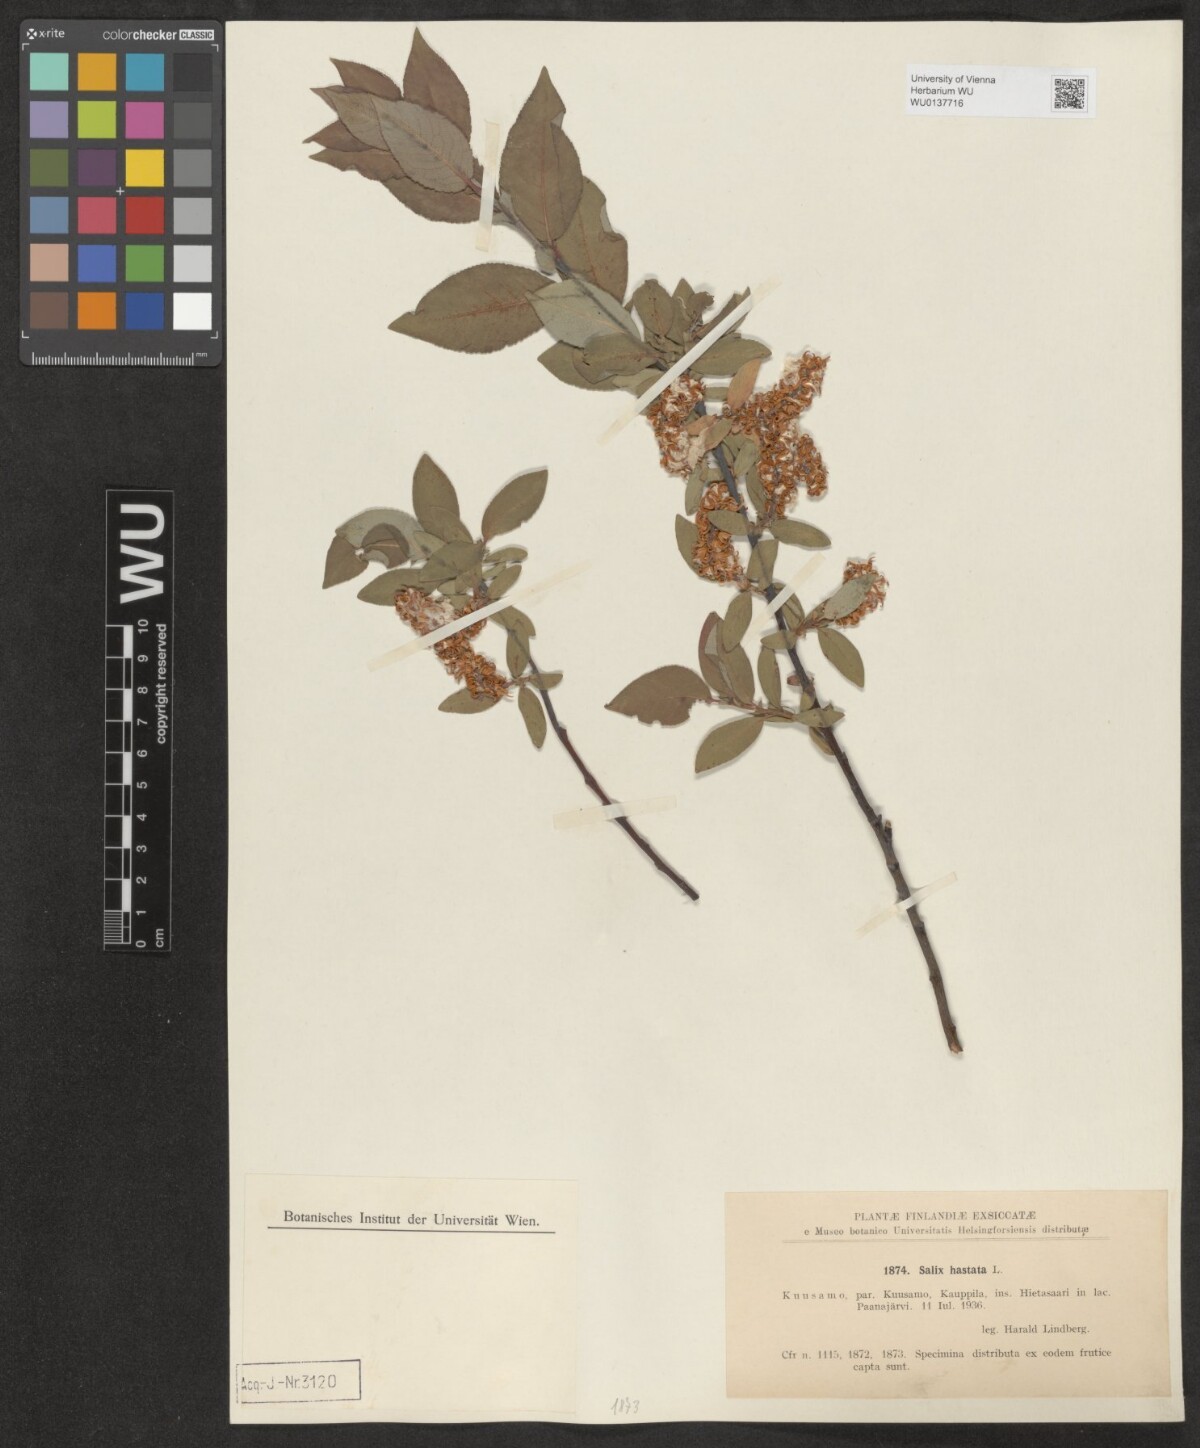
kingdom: Plantae
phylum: Tracheophyta
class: Magnoliopsida
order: Malpighiales
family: Salicaceae
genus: Salix
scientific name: Salix hastata
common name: Halberd willow
